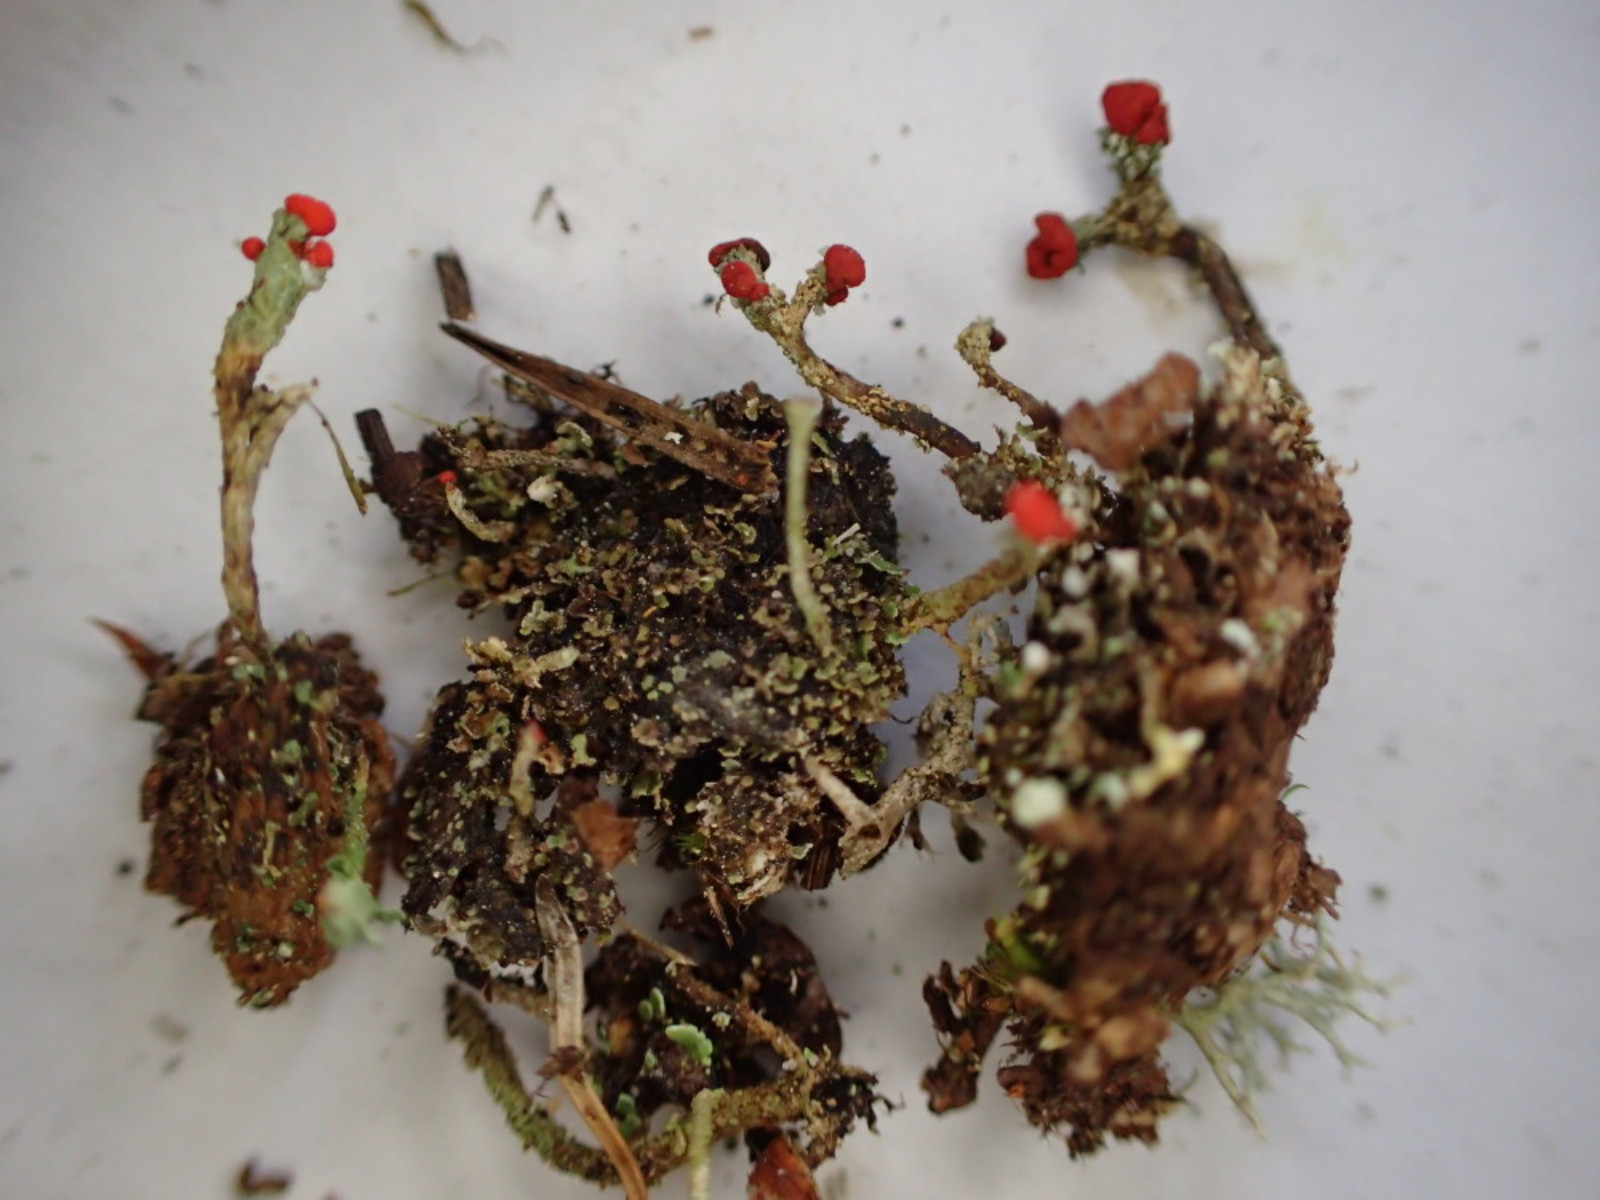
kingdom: Fungi
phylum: Ascomycota
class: Lecanoromycetes
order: Lecanorales
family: Cladoniaceae
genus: Cladonia
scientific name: Cladonia floerkeana
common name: lakrød bægerlav
